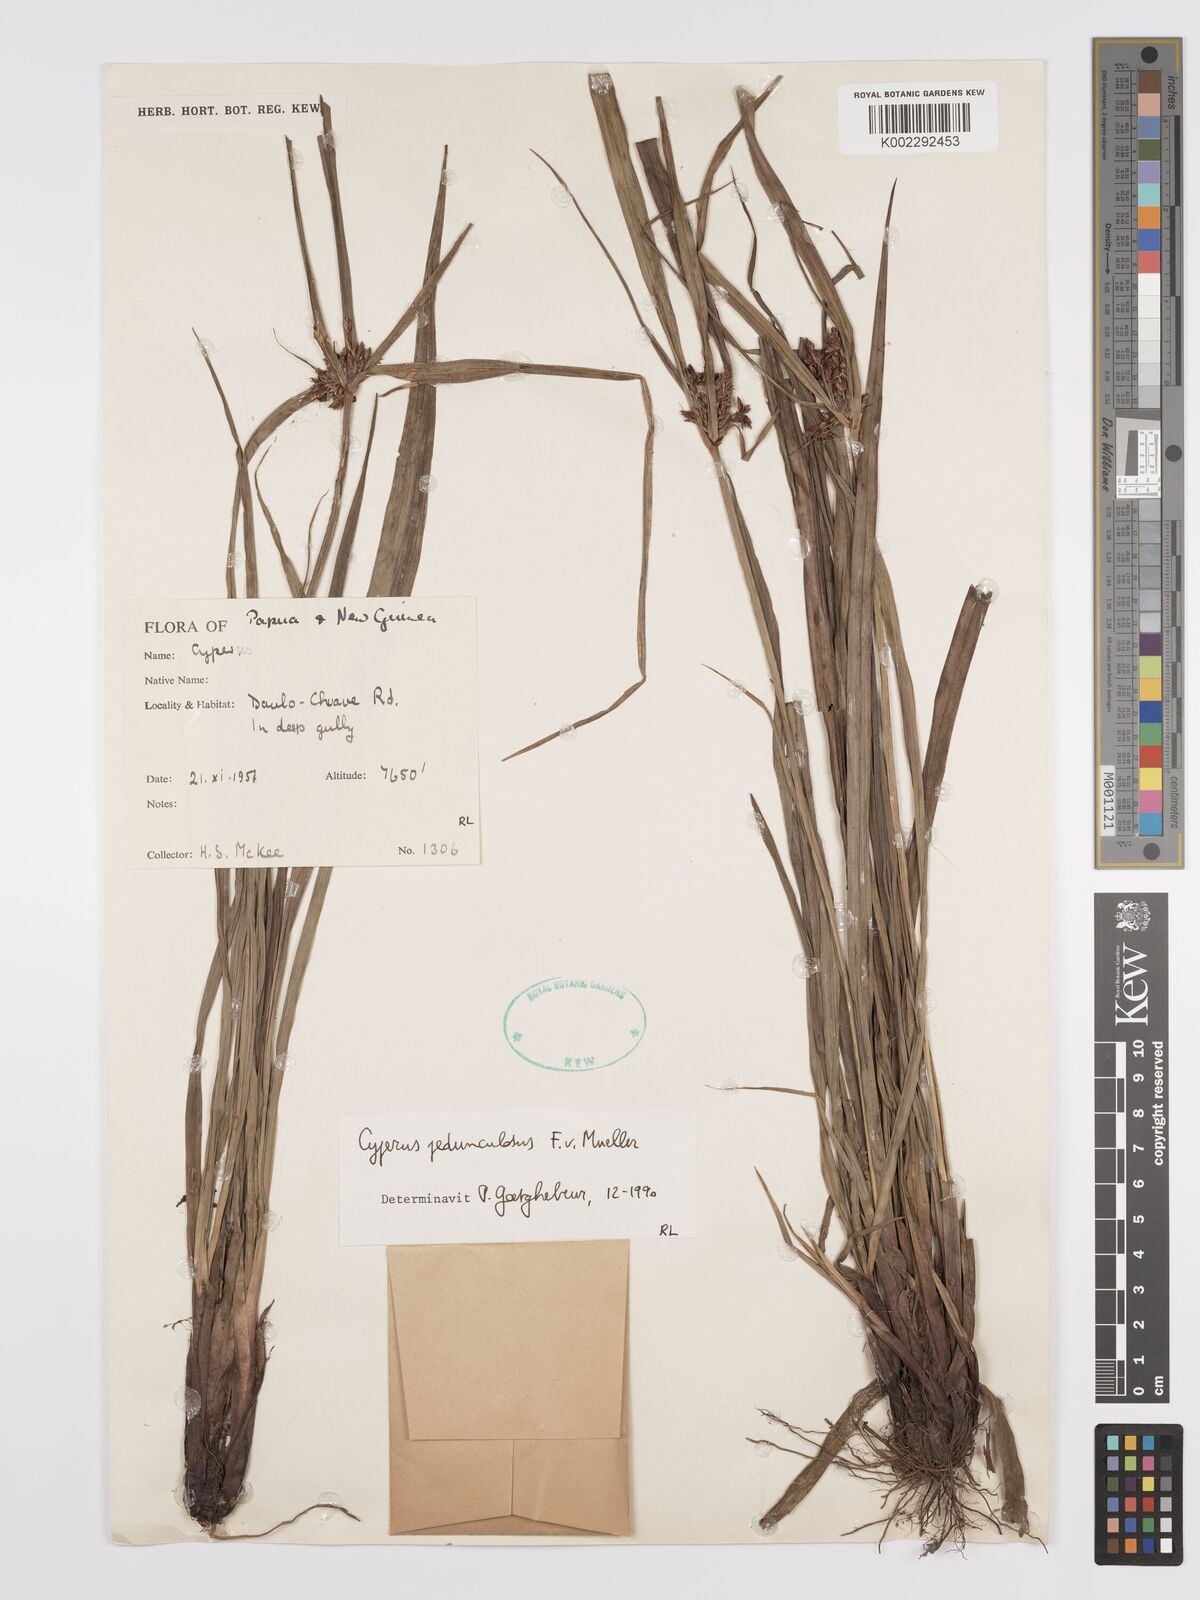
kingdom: Plantae
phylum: Tracheophyta
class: Liliopsida
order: Poales
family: Cyperaceae
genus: Cyperus
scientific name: Cyperus pedunculosus
